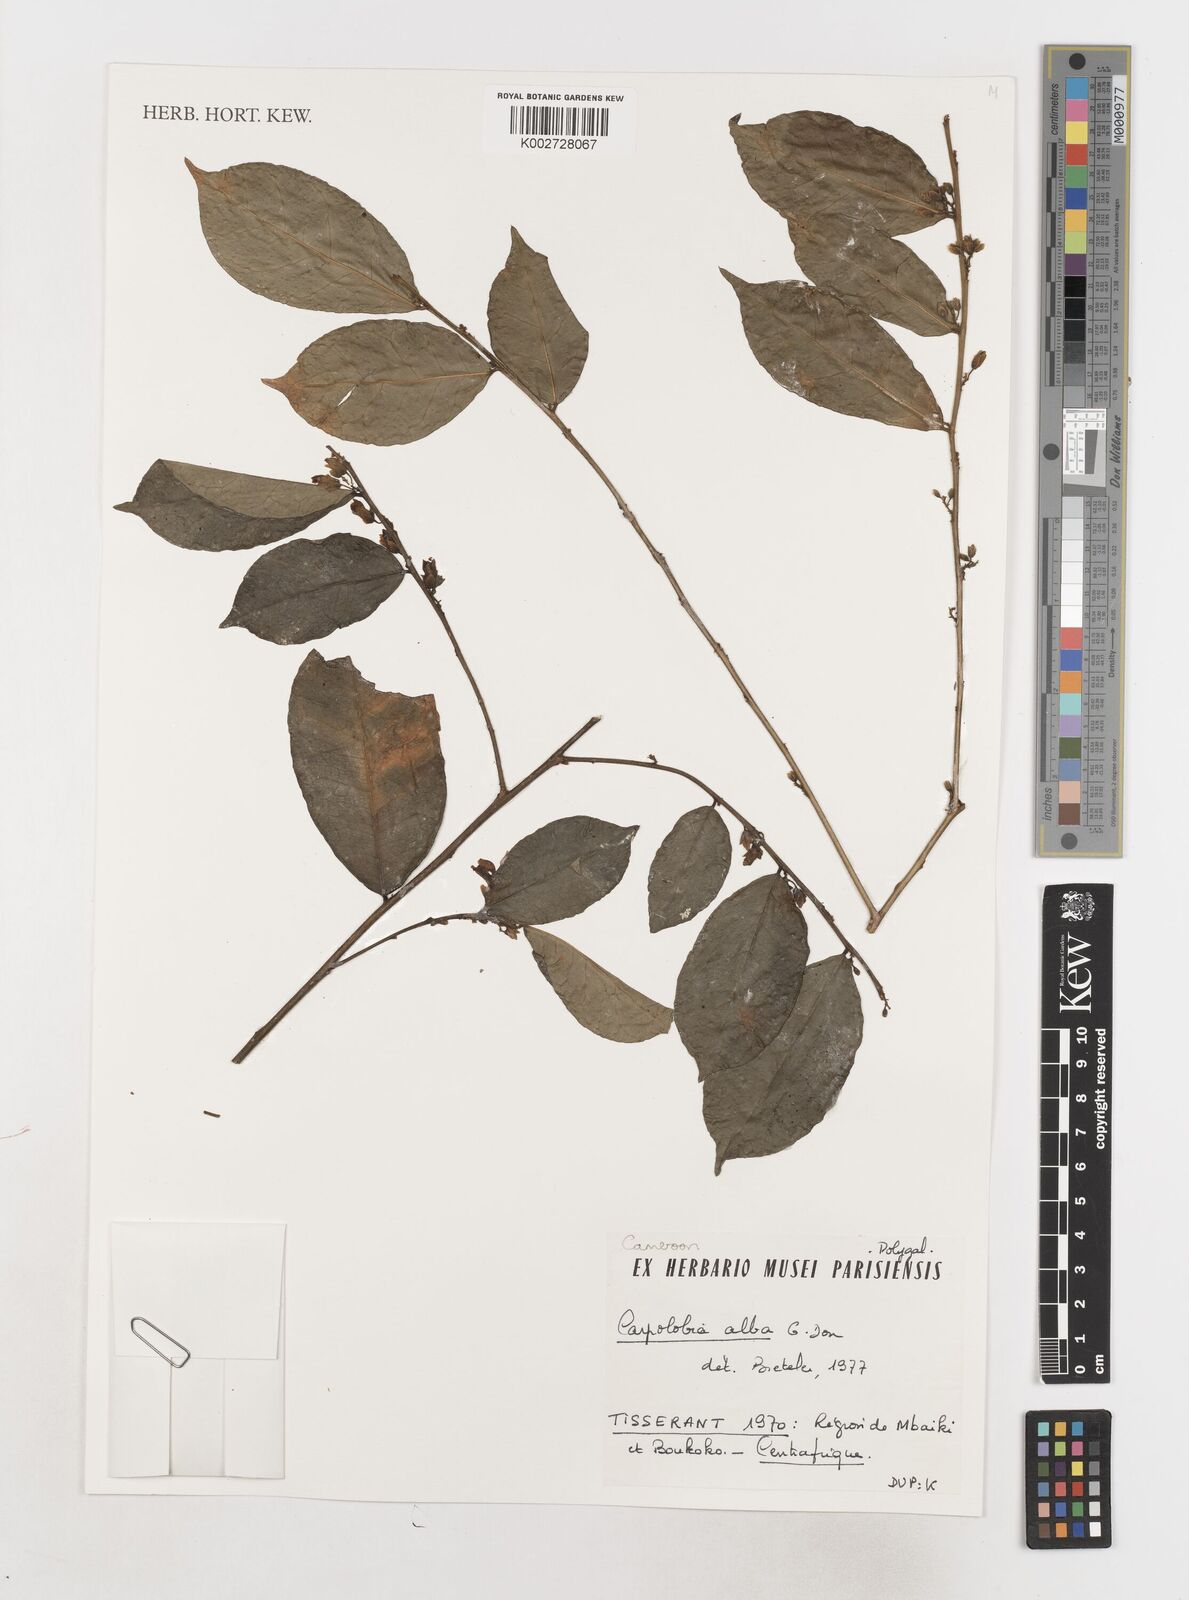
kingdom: Plantae
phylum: Tracheophyta
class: Magnoliopsida
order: Fabales
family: Polygalaceae
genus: Carpolobia
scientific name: Carpolobia alba
